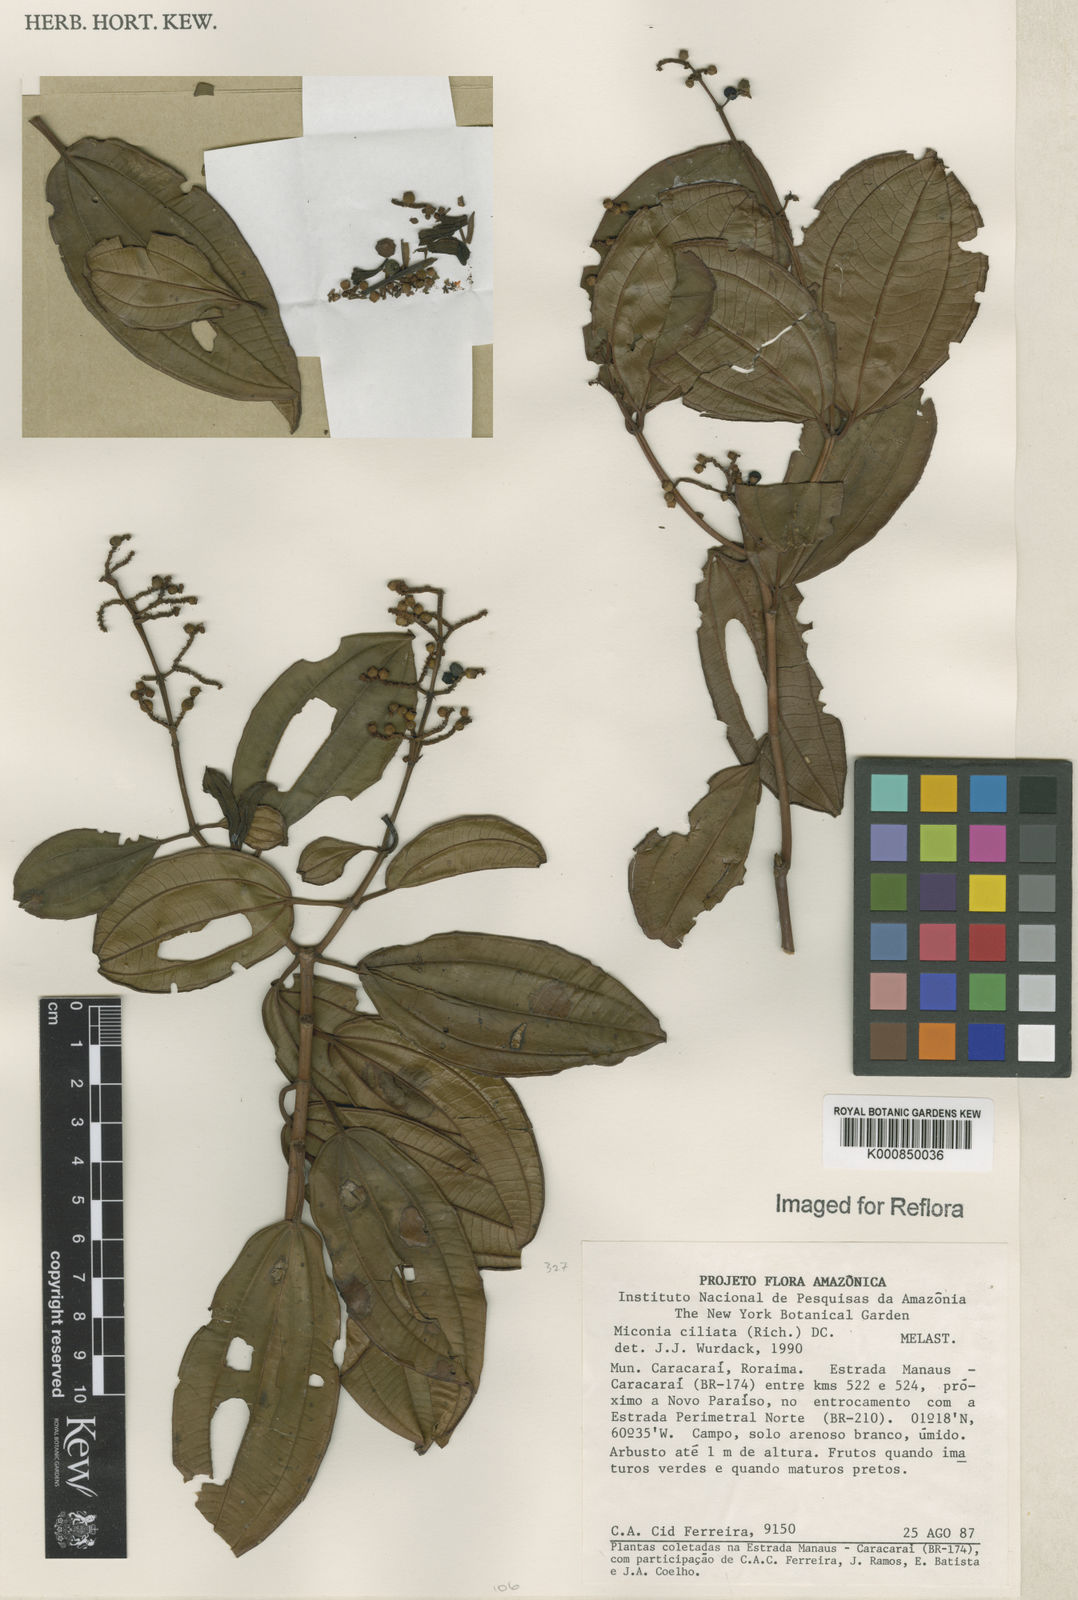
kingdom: Plantae
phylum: Tracheophyta
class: Magnoliopsida
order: Myrtales
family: Melastomataceae
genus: Miconia
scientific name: Miconia ciliata
